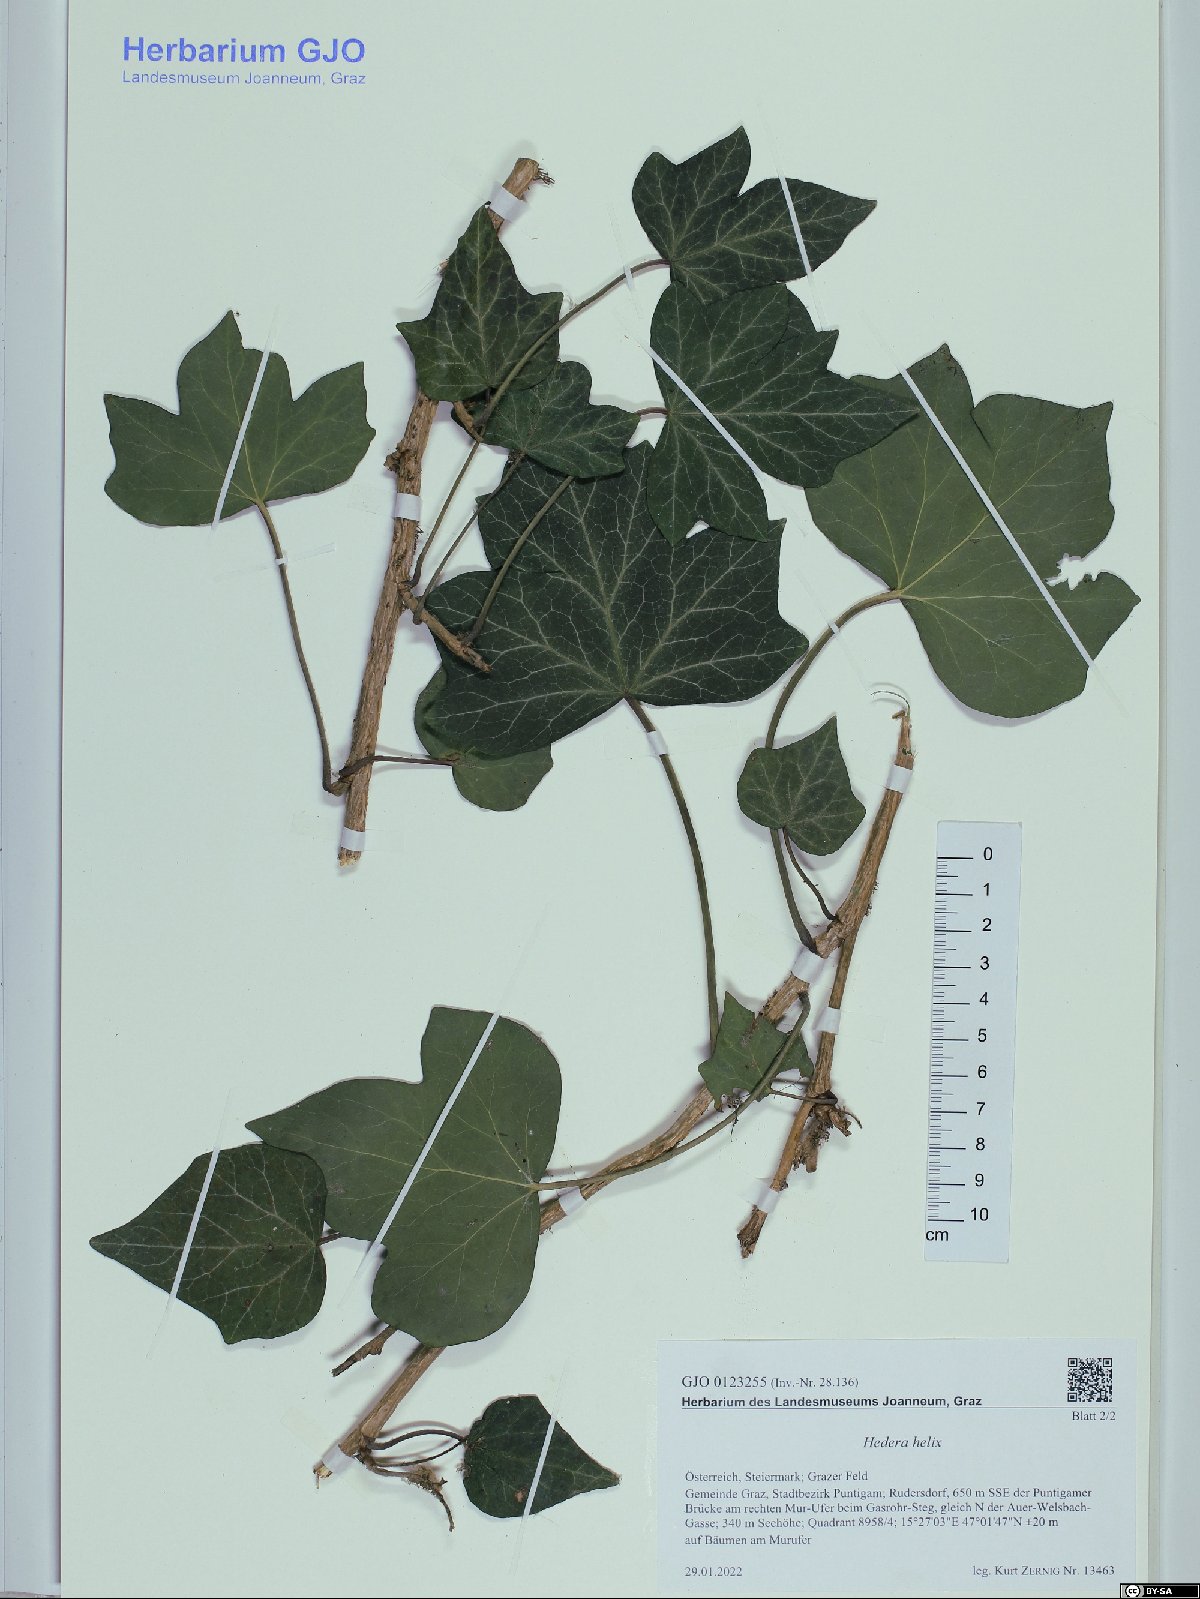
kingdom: Plantae
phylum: Tracheophyta
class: Magnoliopsida
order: Apiales
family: Araliaceae
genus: Hedera
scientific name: Hedera helix
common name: Ivy
